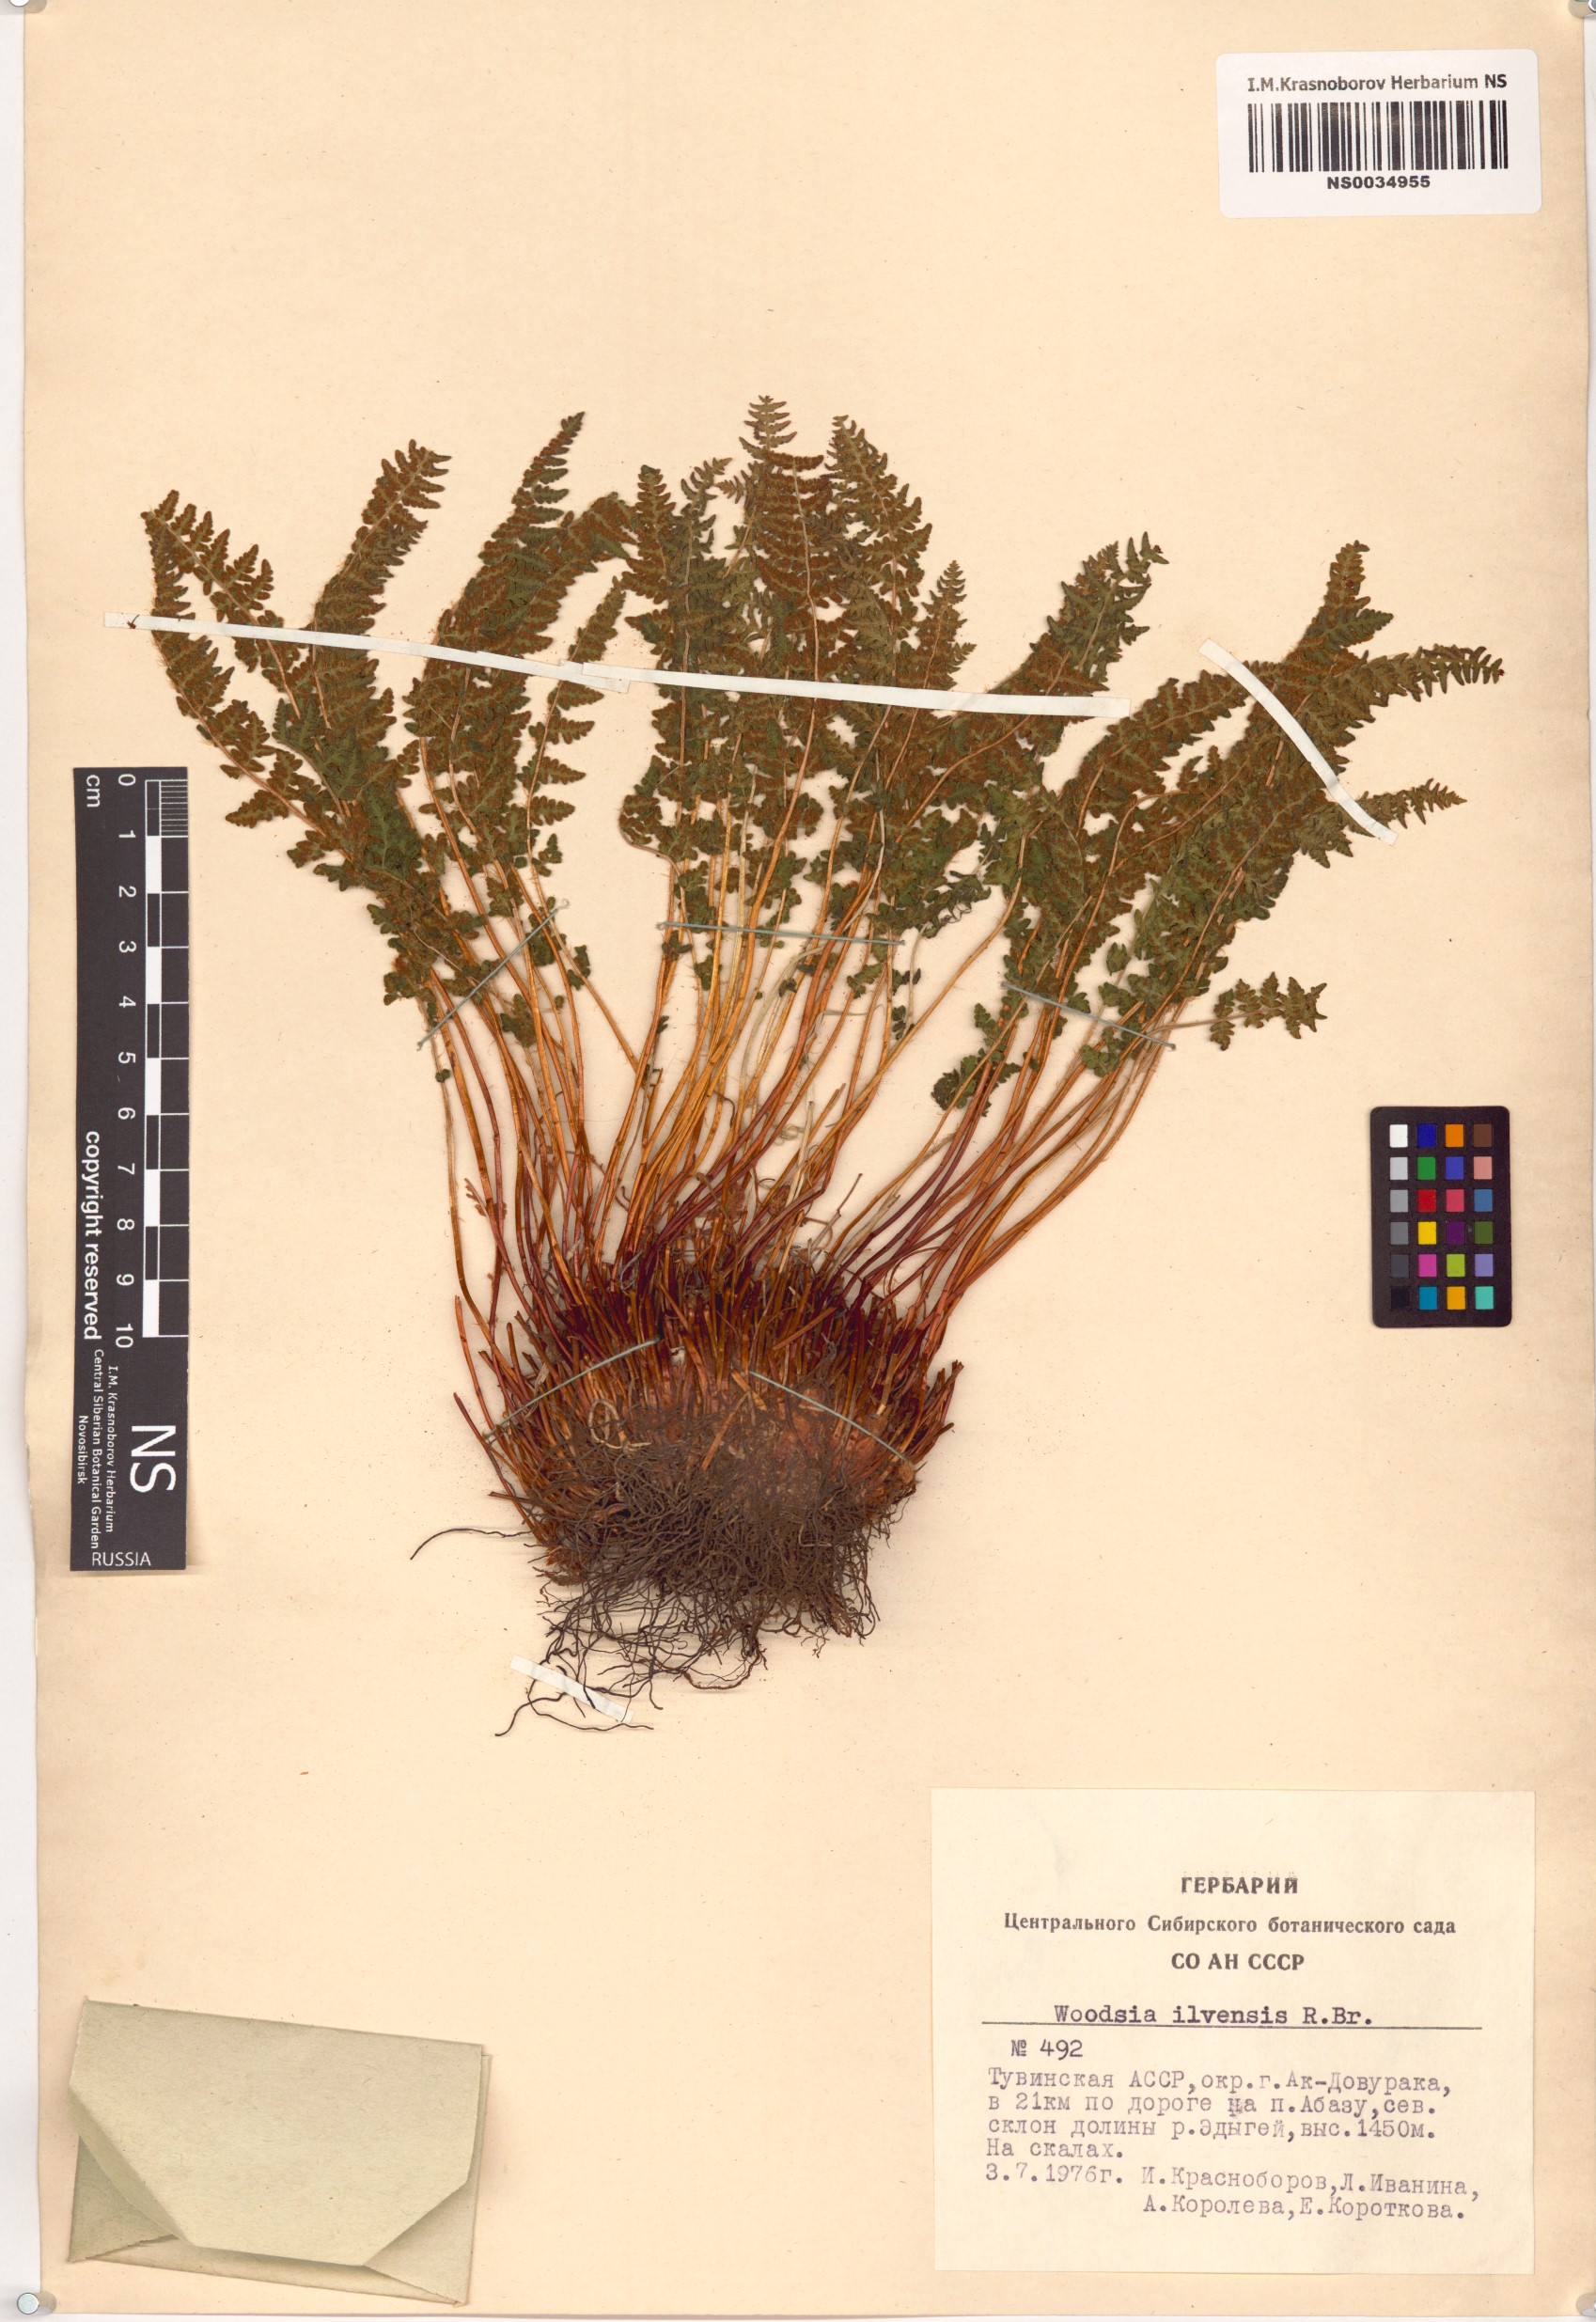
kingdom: Plantae
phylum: Tracheophyta
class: Polypodiopsida
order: Polypodiales
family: Woodsiaceae
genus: Woodsia
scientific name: Woodsia ilvensis
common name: Fragrant woodsia
